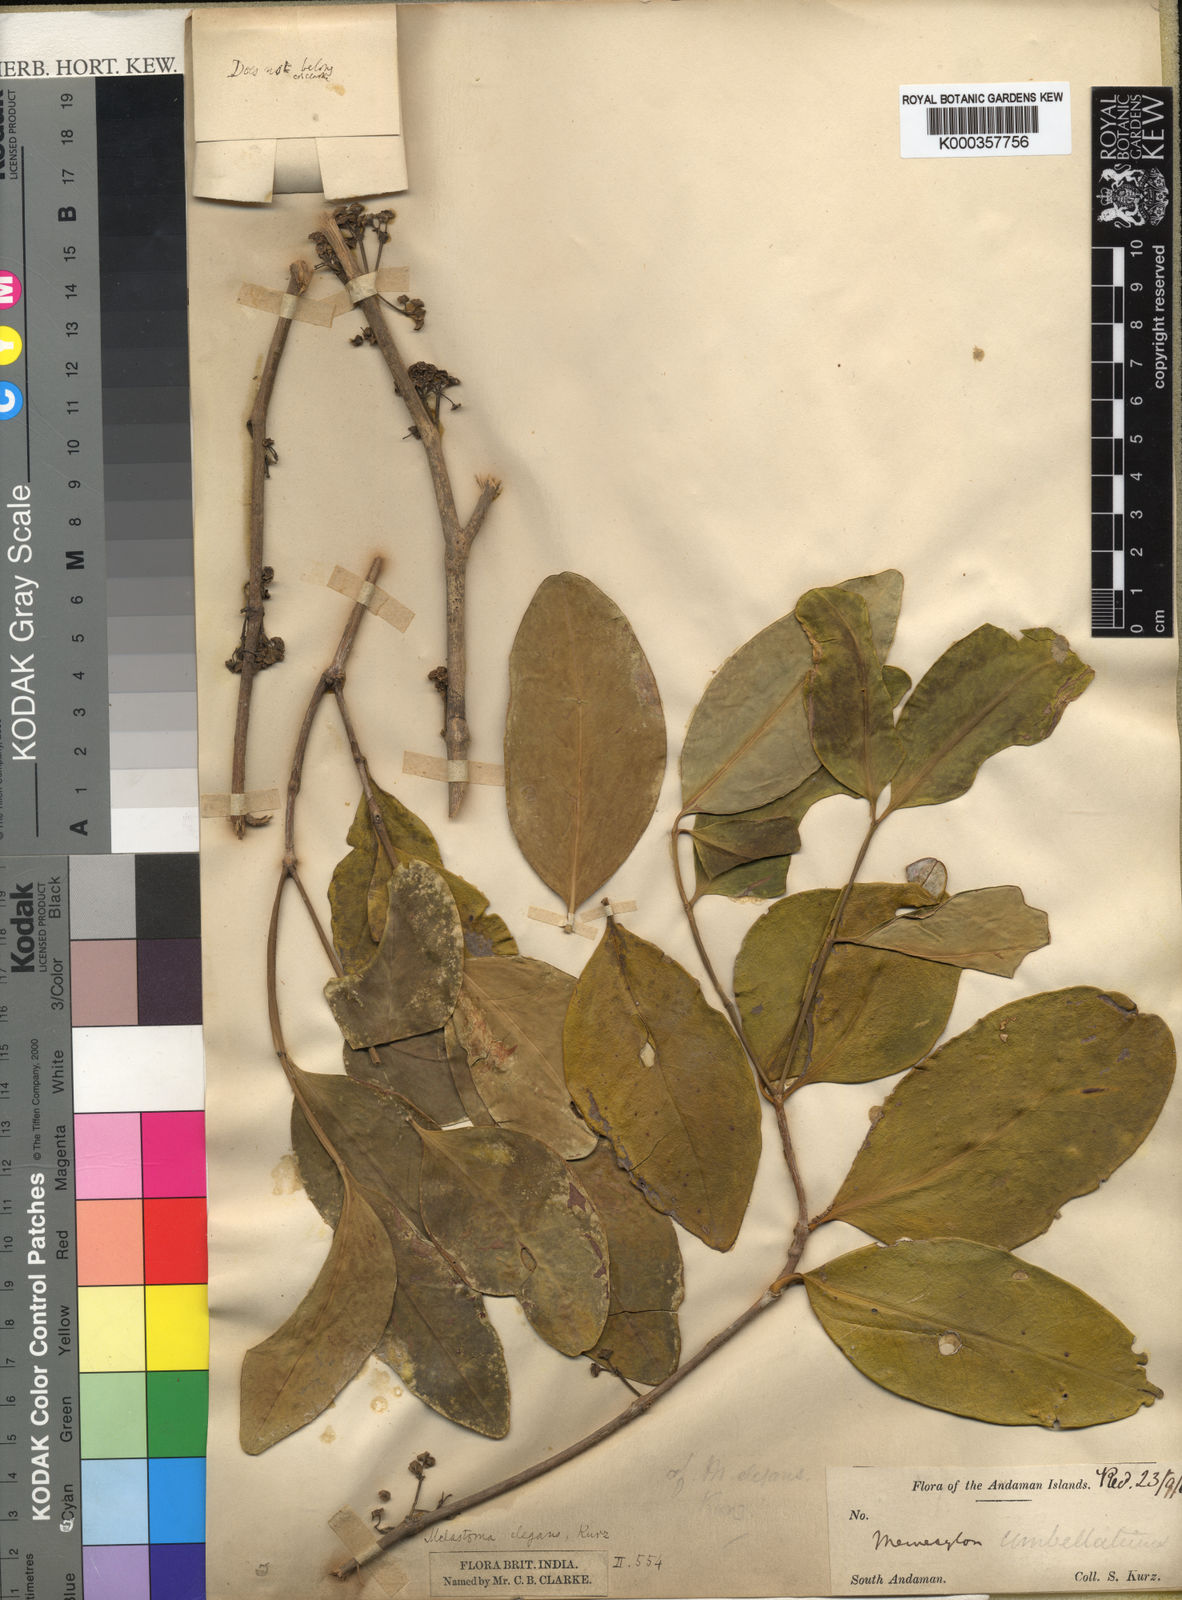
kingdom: Plantae
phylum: Tracheophyta
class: Magnoliopsida
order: Myrtales
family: Melastomataceae
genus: Memecylon
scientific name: Memecylon elegans
